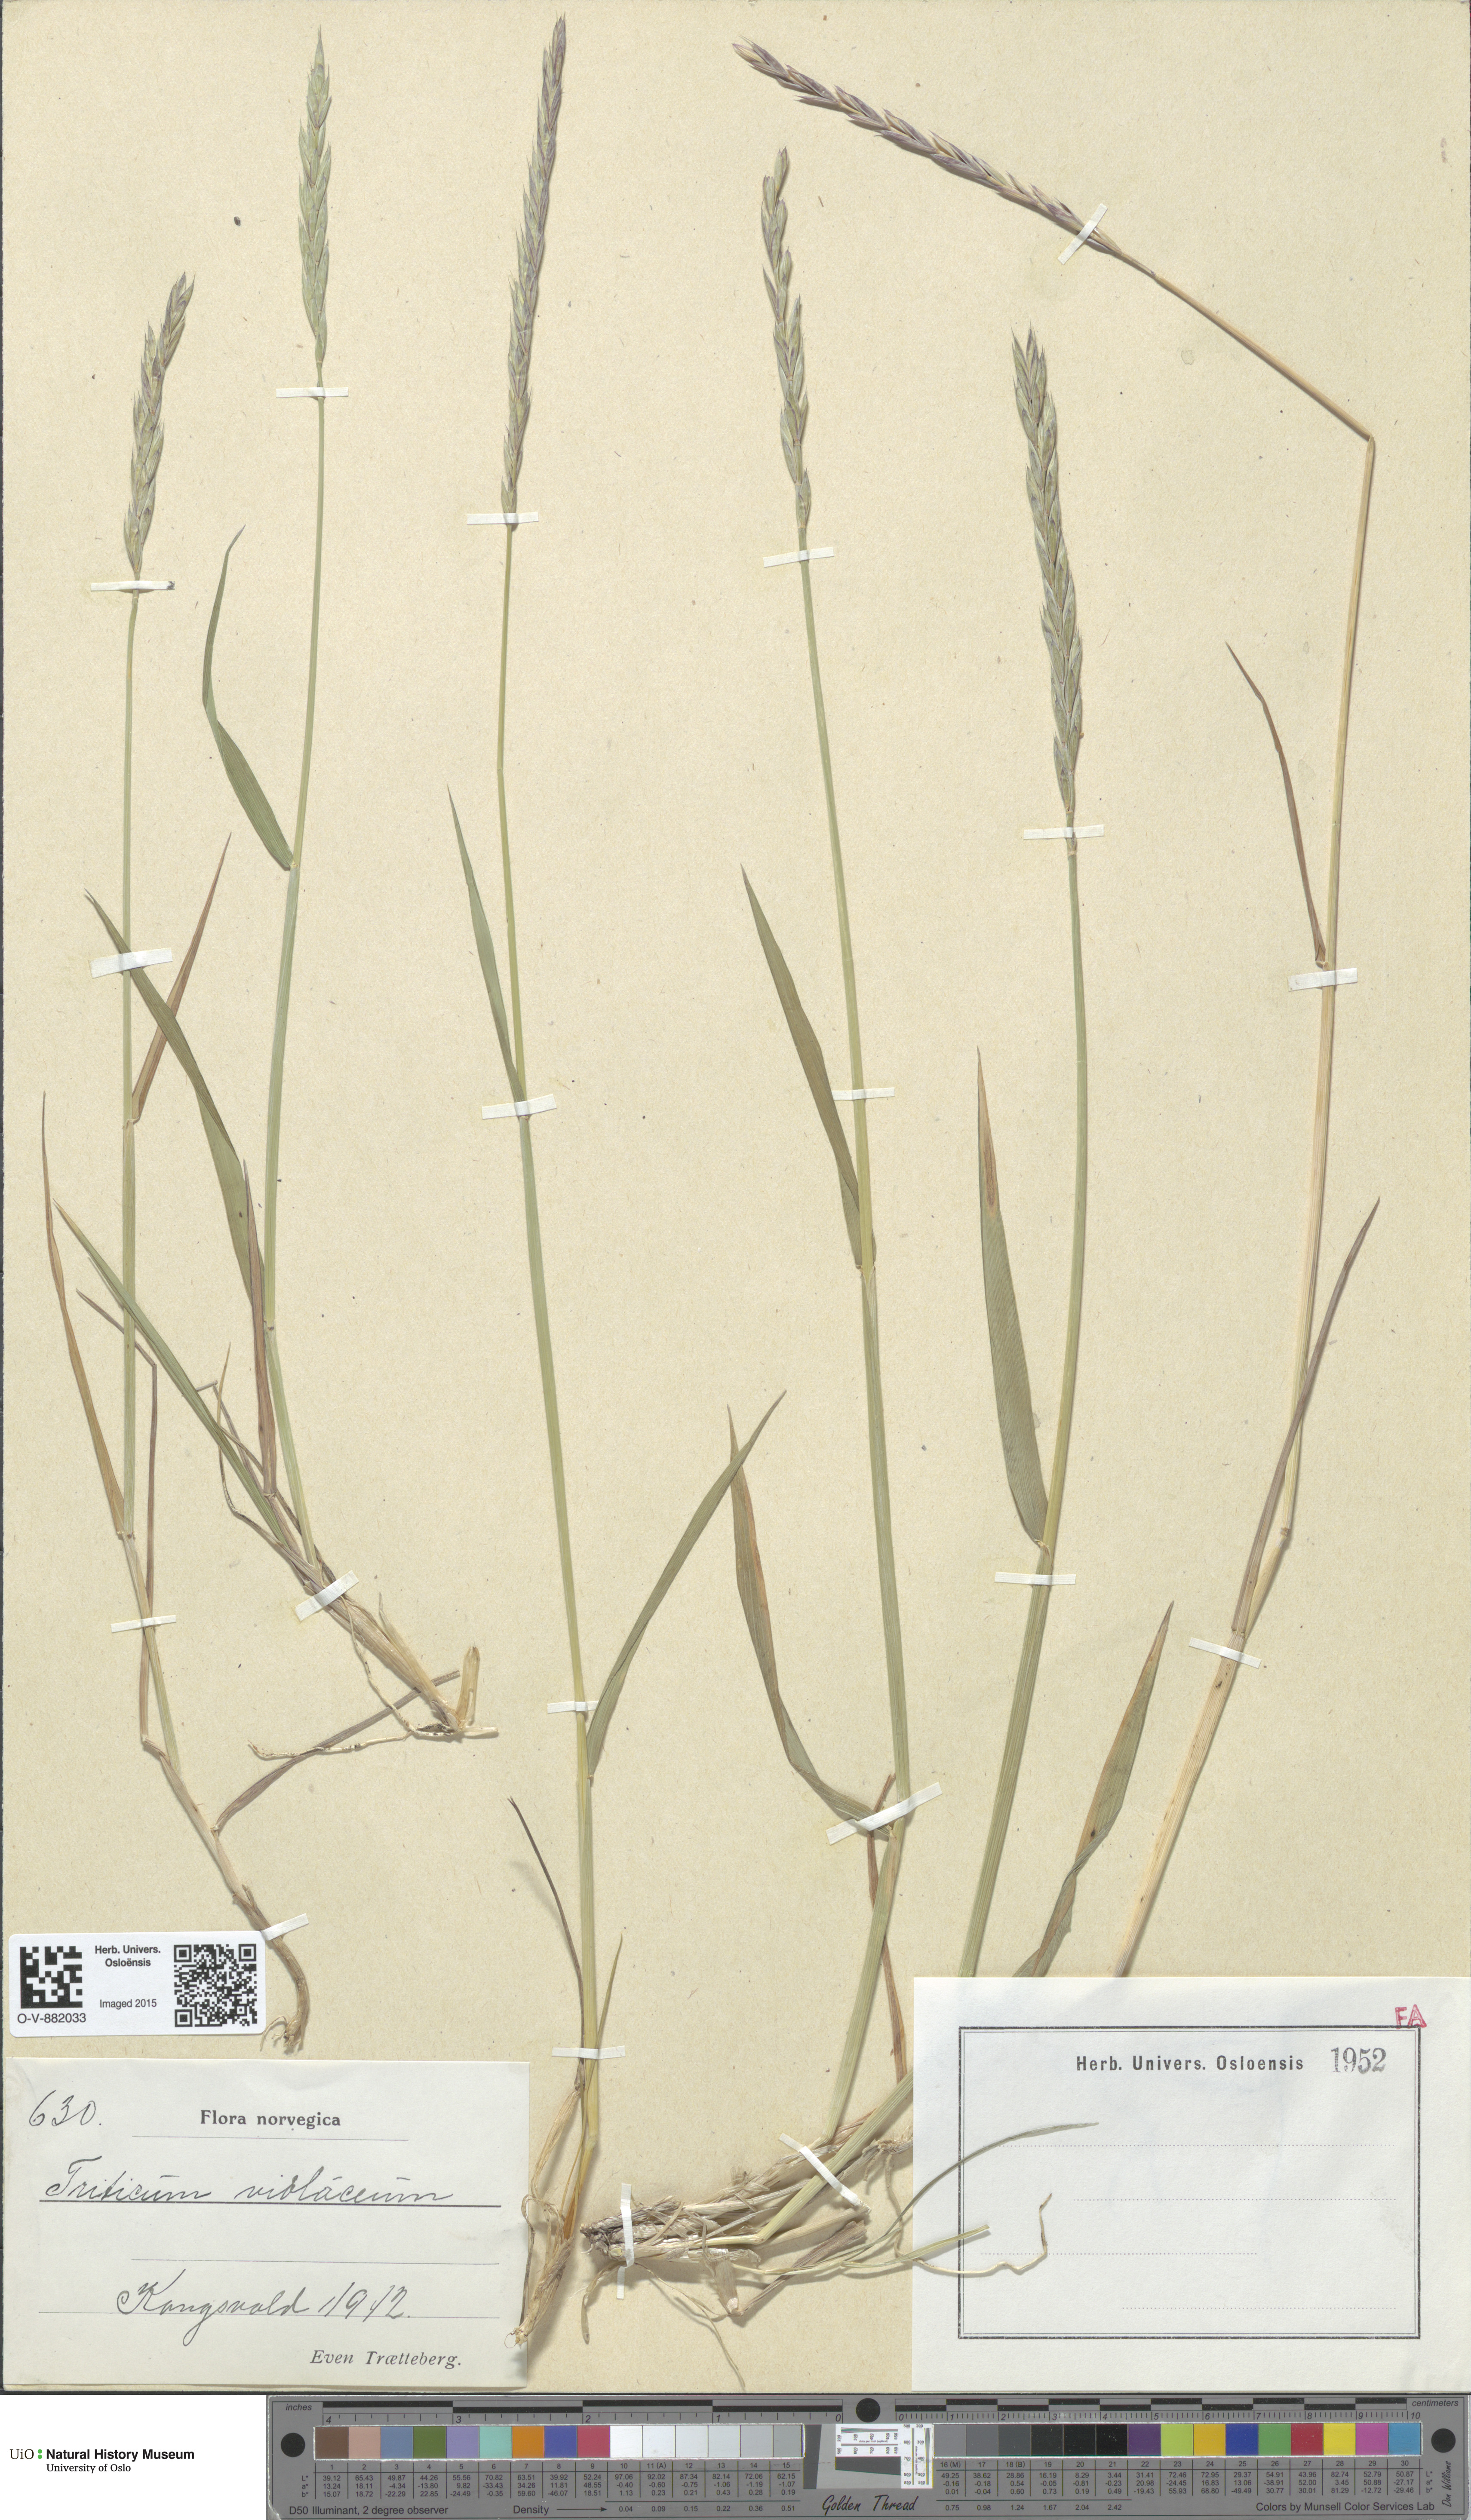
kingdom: Plantae
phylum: Tracheophyta
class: Liliopsida
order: Poales
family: Poaceae
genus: Elymus
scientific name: Elymus macrourus
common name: Northern wheatgrass
